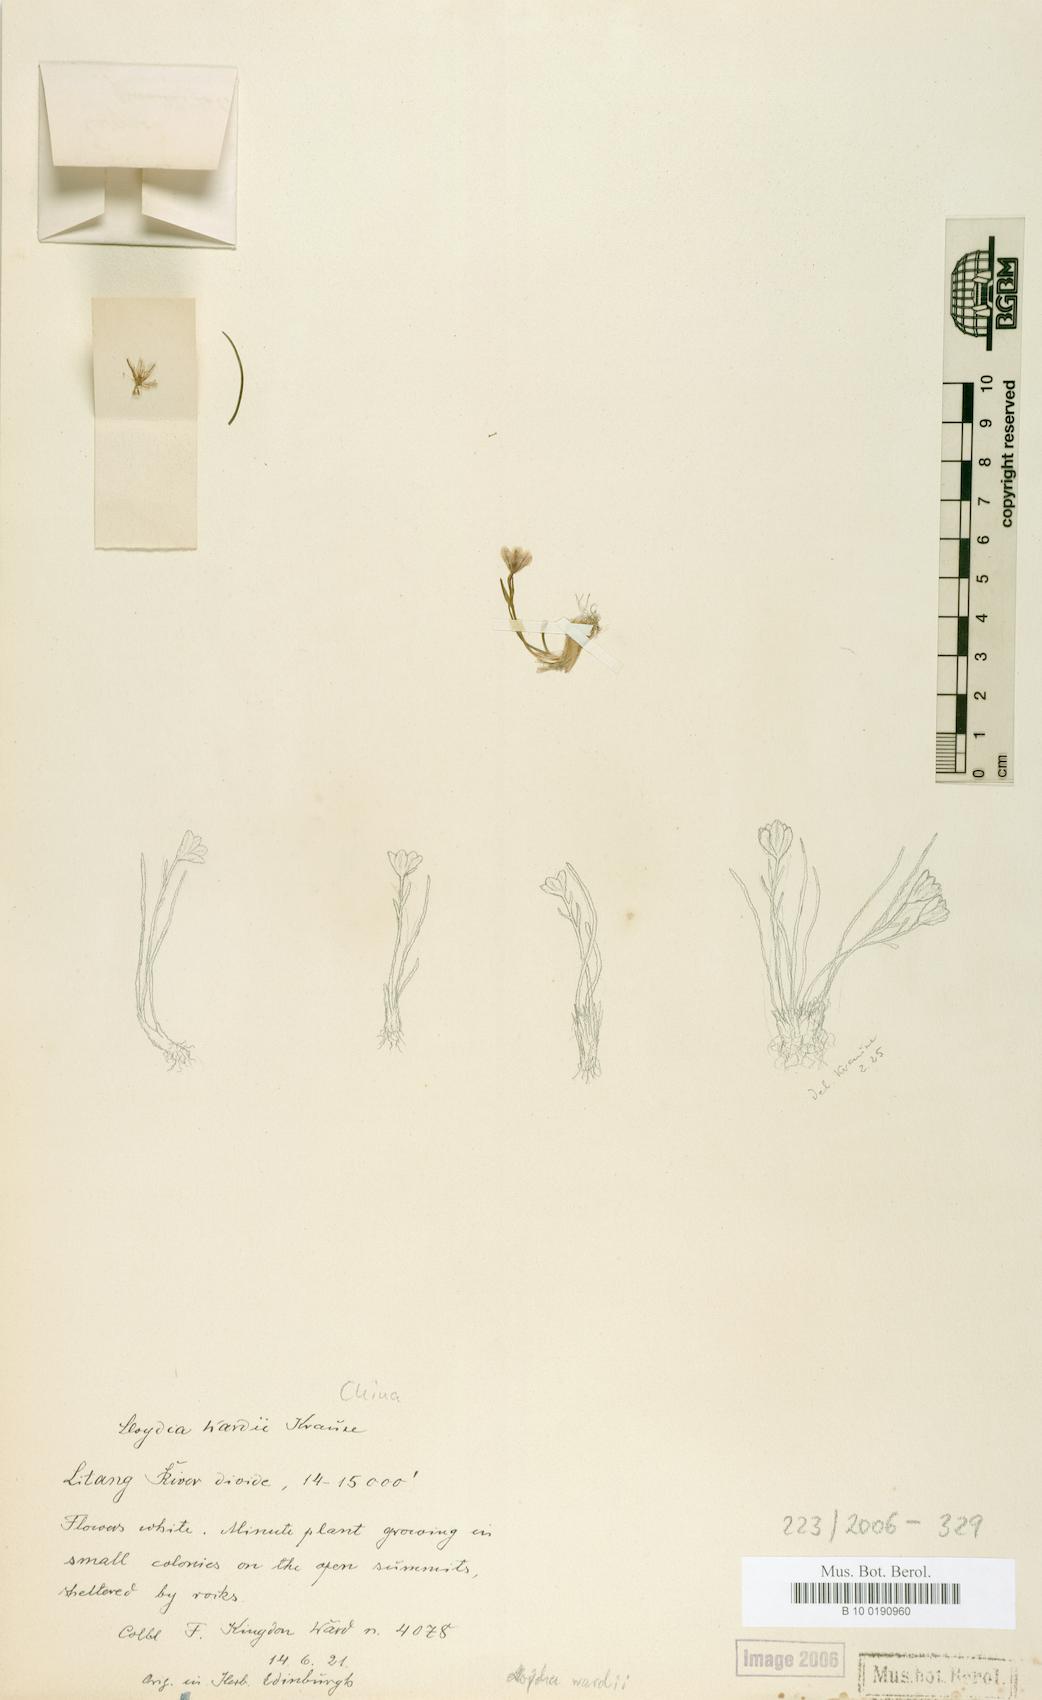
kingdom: Plantae
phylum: Tracheophyta
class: Liliopsida
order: Liliales
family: Liliaceae
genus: Lloydia
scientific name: Lloydia
